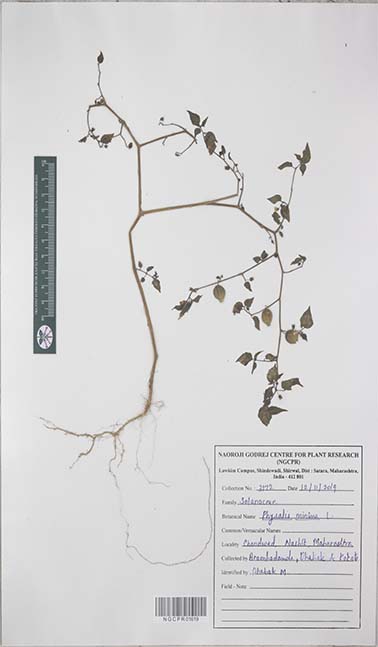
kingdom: Plantae
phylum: Tracheophyta
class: Magnoliopsida
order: Solanales
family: Solanaceae
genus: Physalis
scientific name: Physalis angulata
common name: Angular winter-cherry
